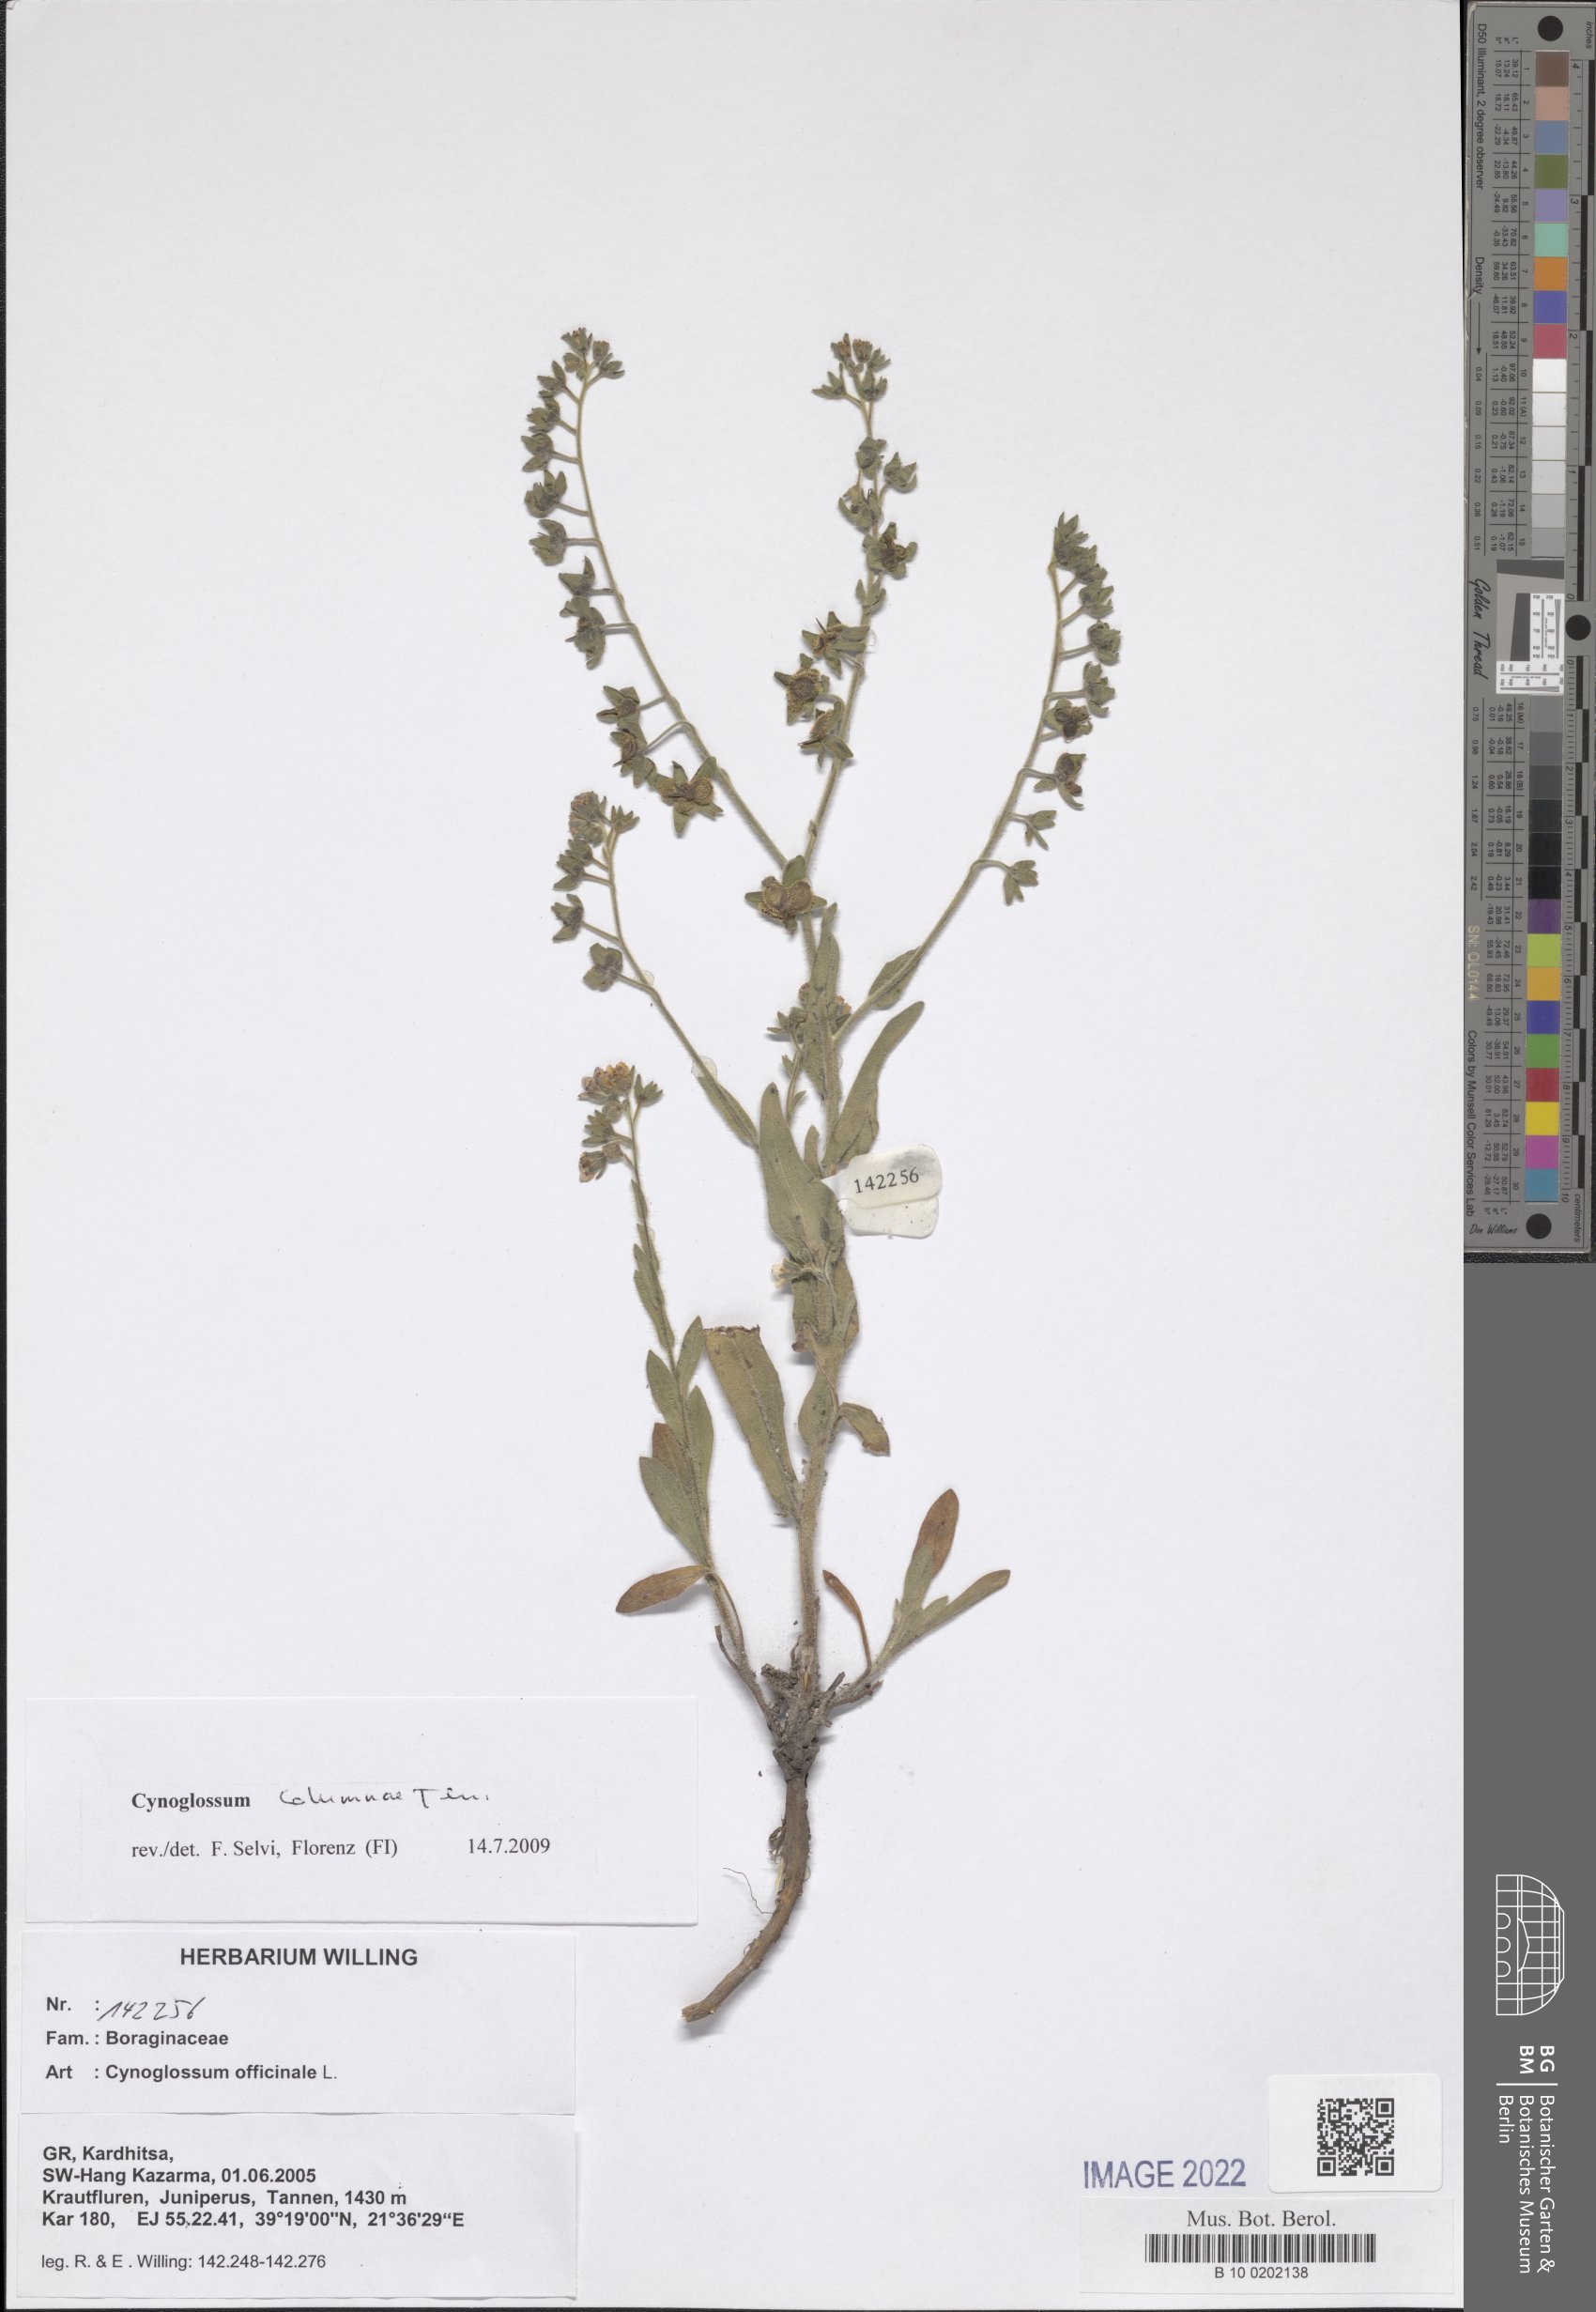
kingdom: Plantae
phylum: Tracheophyta
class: Magnoliopsida
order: Boraginales
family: Boraginaceae
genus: Rindera
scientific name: Rindera columnae
